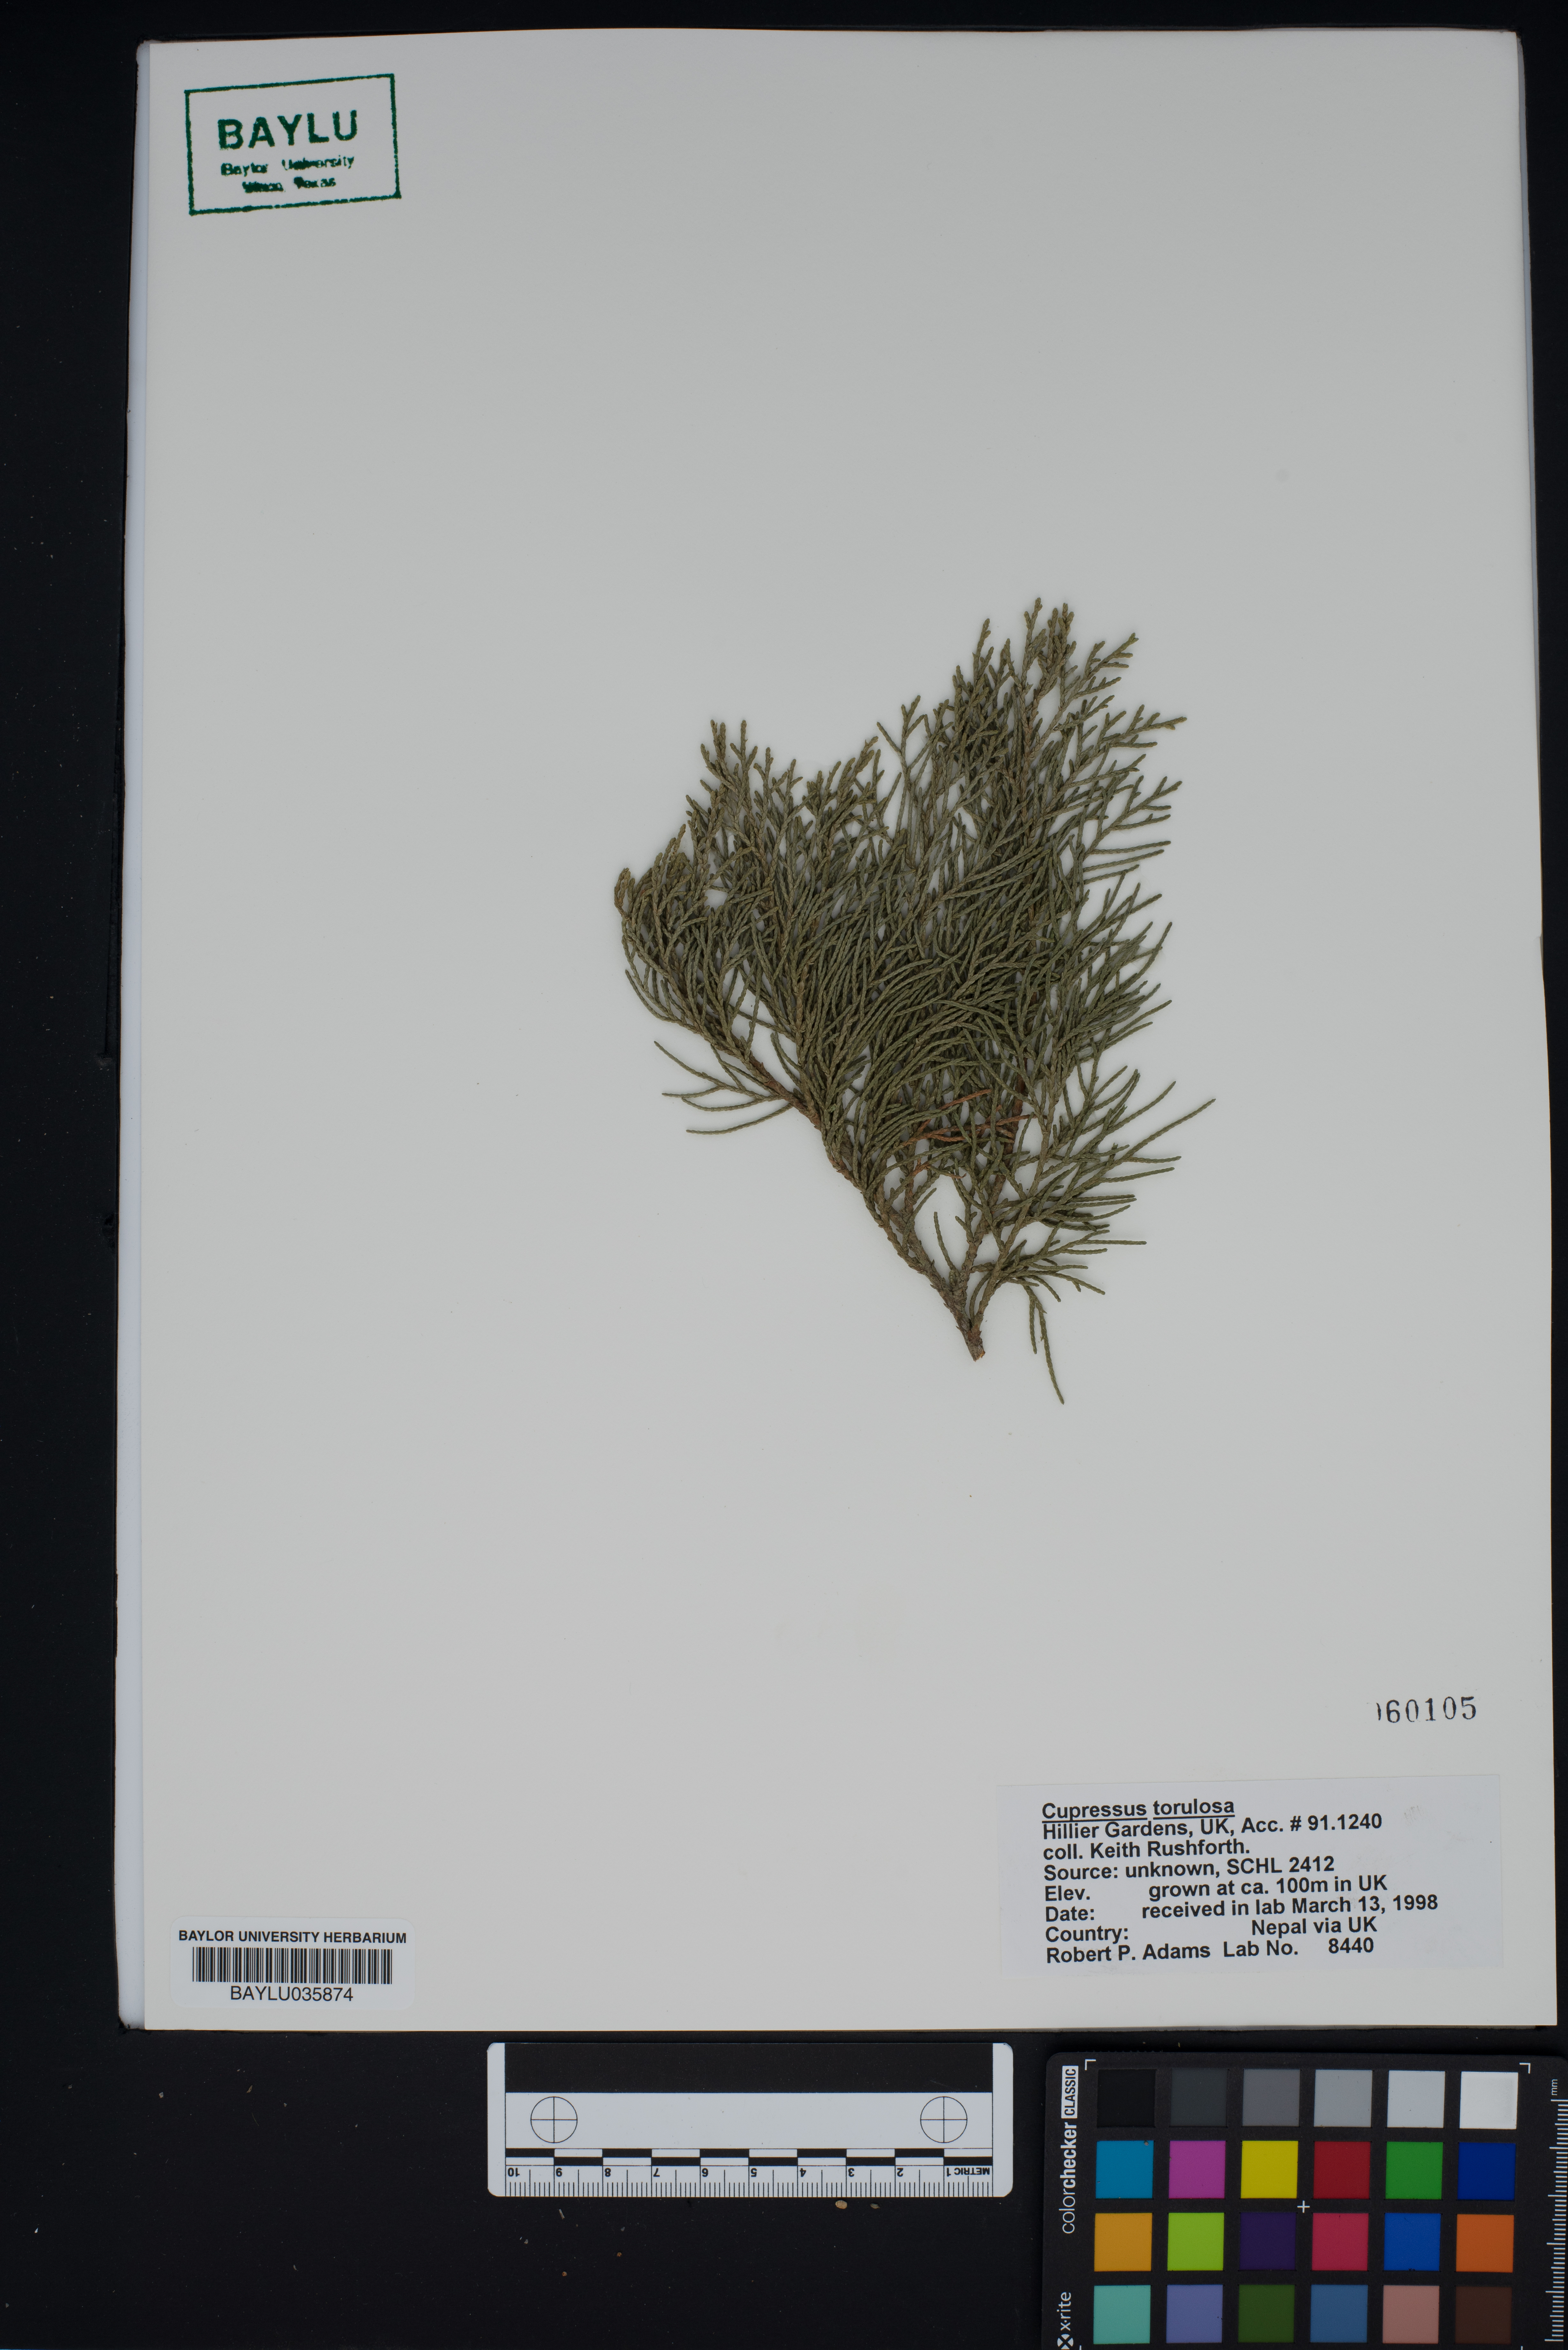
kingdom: Plantae
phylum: Tracheophyta
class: Pinopsida
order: Pinales
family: Cupressaceae
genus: Cupressus
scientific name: Cupressus torulosa
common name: Himalayan cypress
